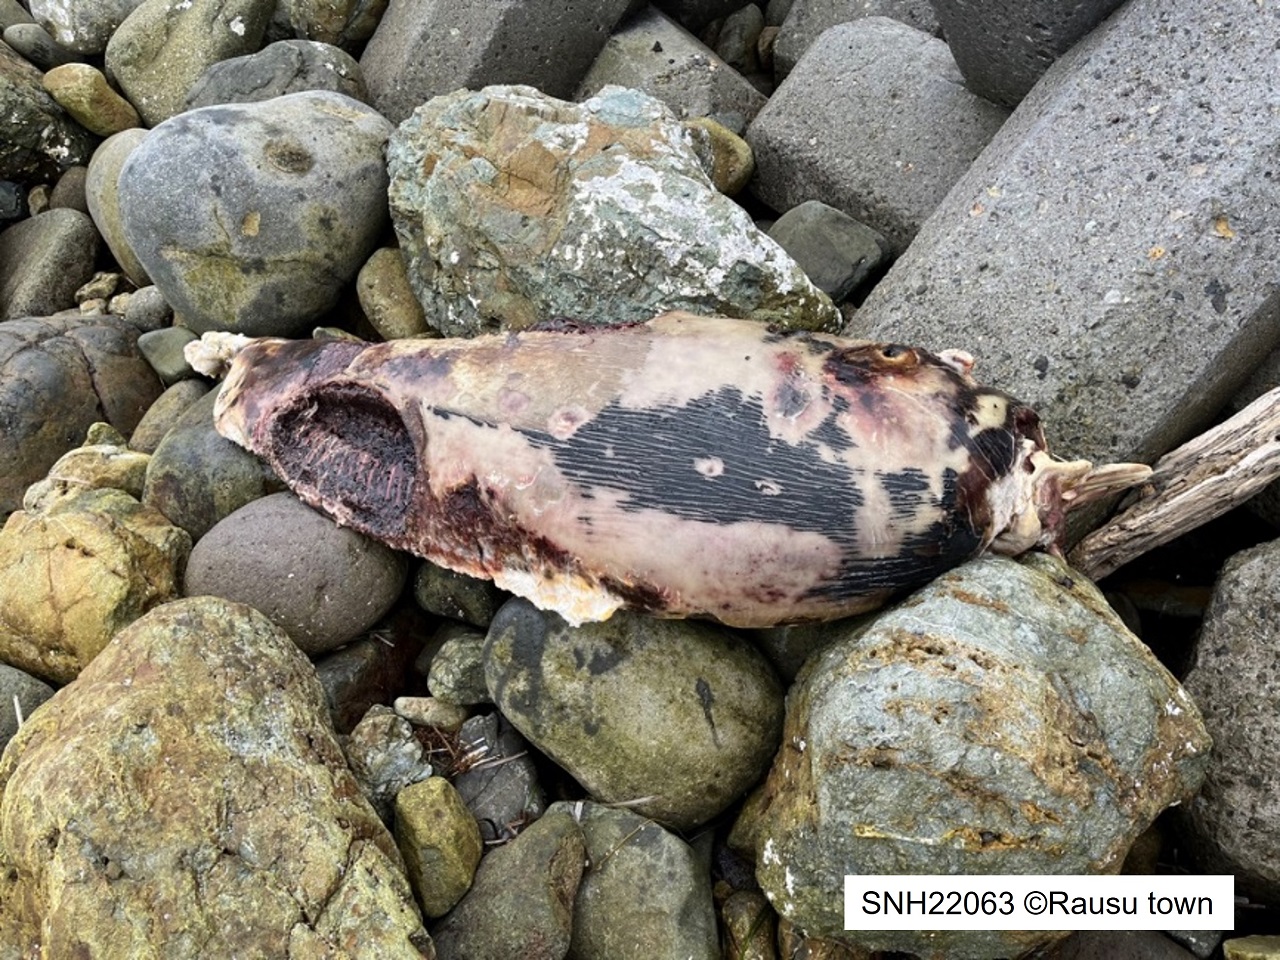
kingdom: Animalia
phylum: Chordata
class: Mammalia
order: Cetacea
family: Phocoenidae
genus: Phocoenoides
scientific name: Phocoenoides dalli
